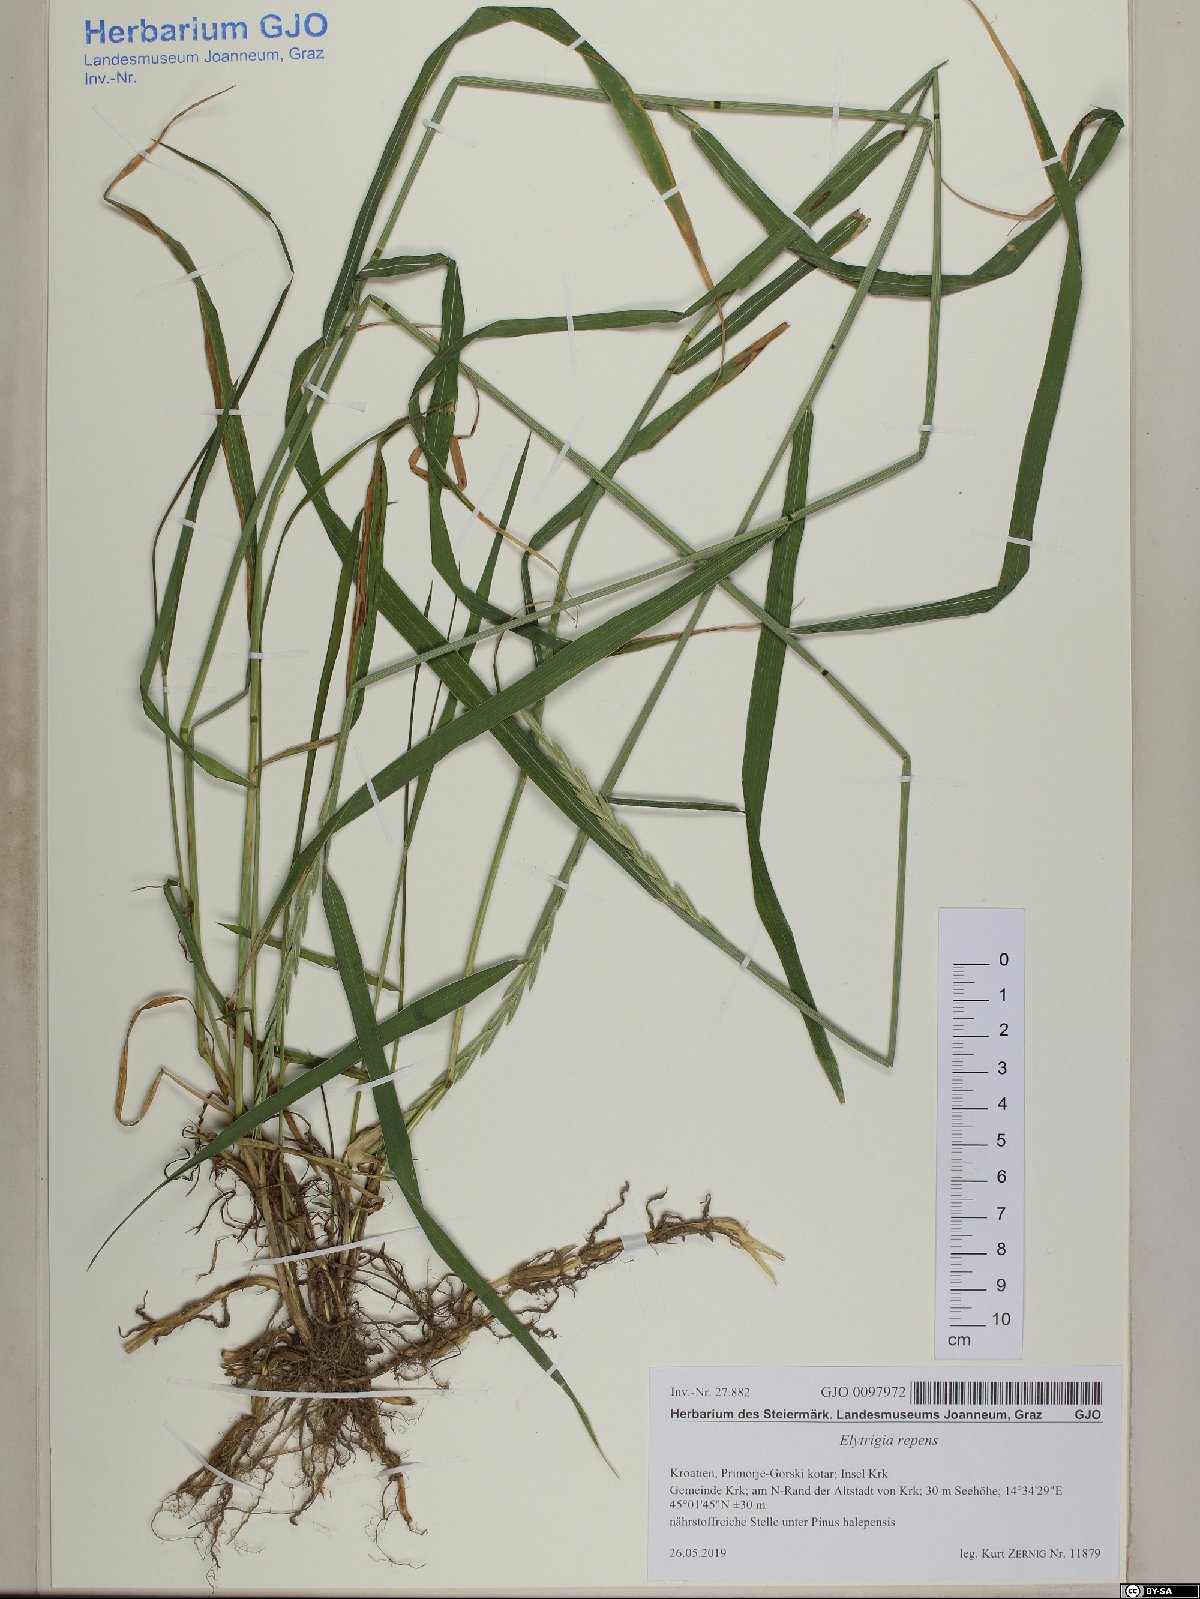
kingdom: Plantae
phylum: Tracheophyta
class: Liliopsida
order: Poales
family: Poaceae
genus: Elymus
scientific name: Elymus repens
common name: Quackgrass
